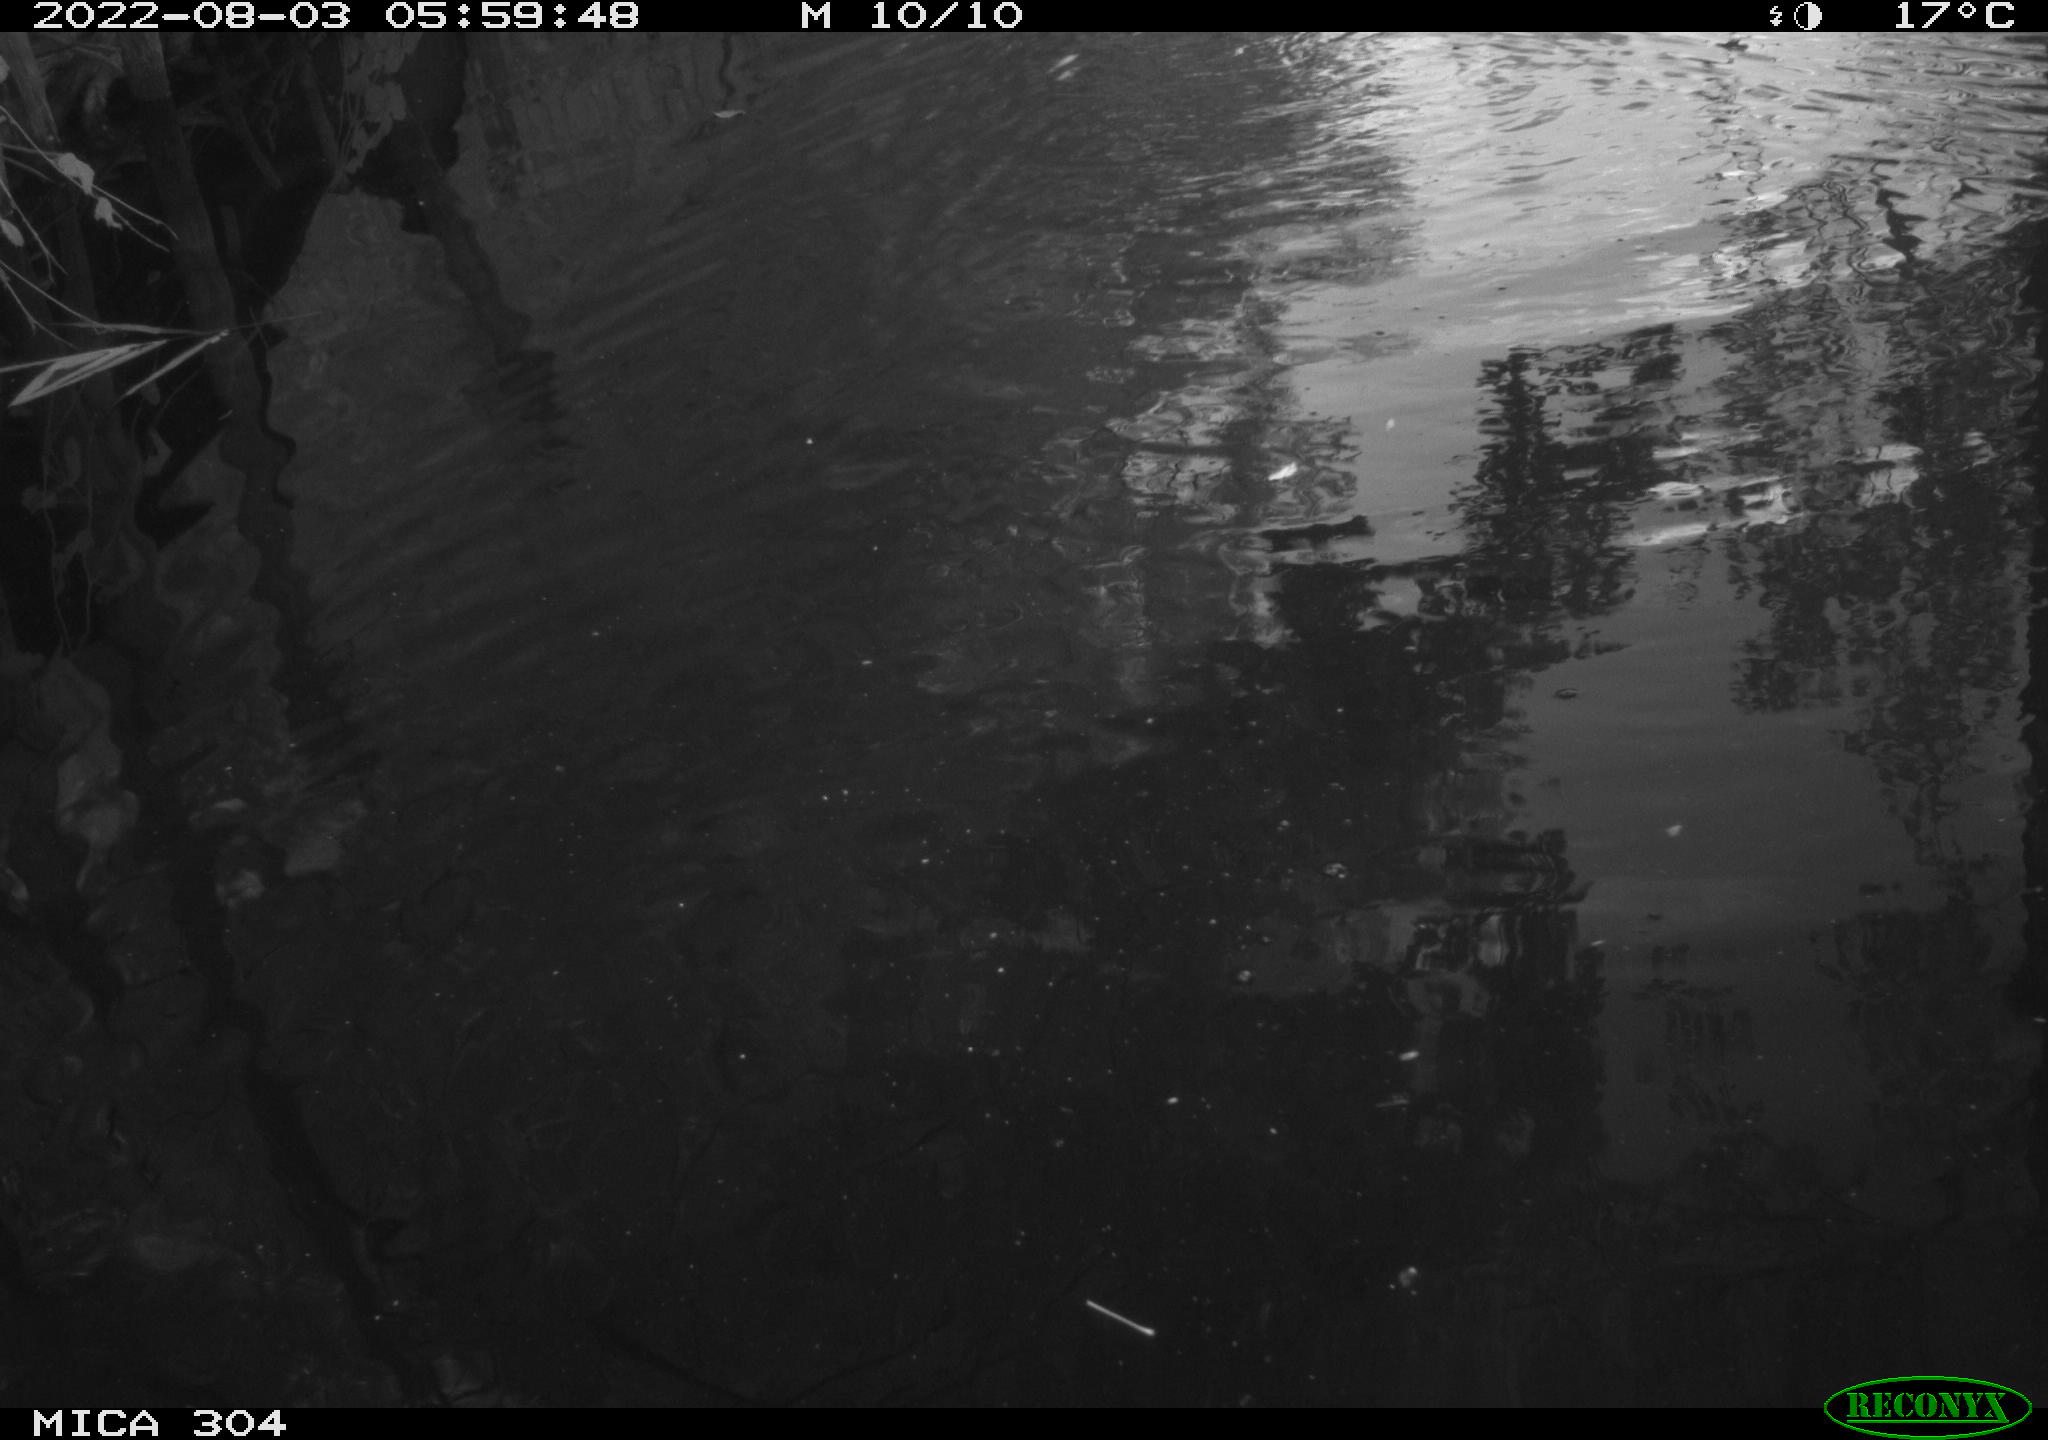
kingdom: Animalia
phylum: Chordata
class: Aves
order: Anseriformes
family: Anatidae
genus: Anas
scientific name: Anas platyrhynchos
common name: Mallard
